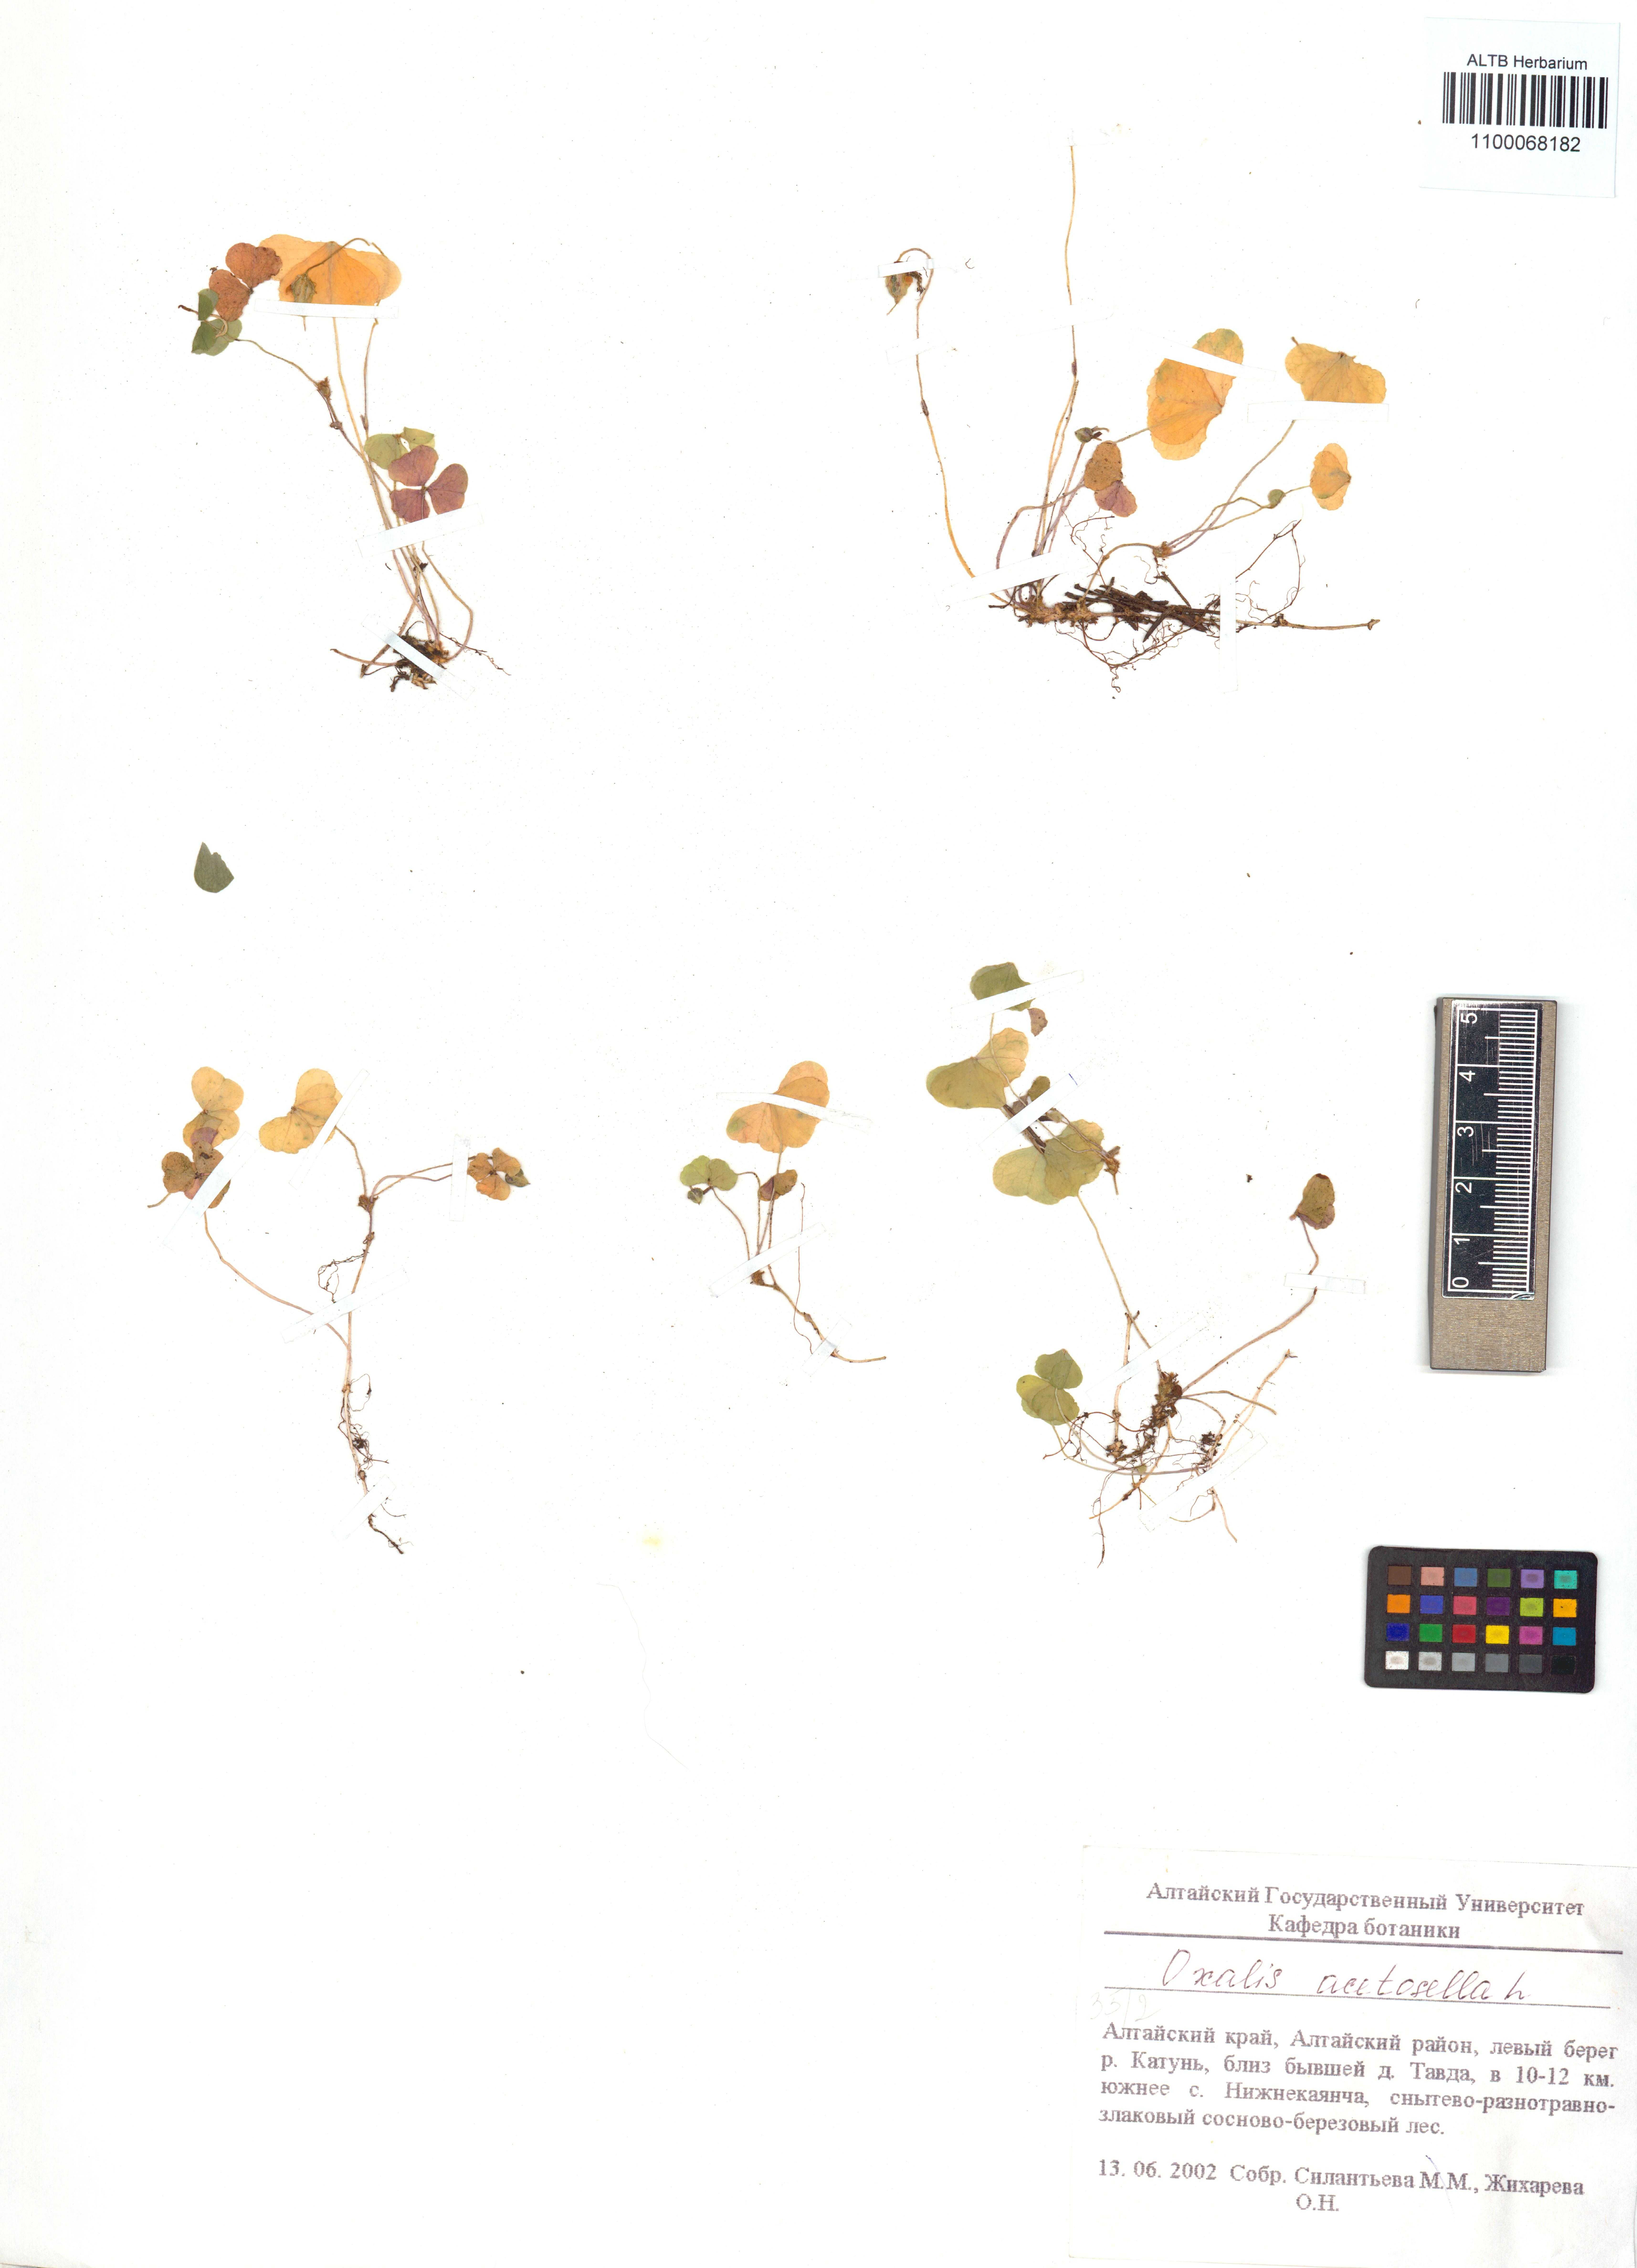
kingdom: Plantae
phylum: Tracheophyta
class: Magnoliopsida
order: Oxalidales
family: Oxalidaceae
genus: Oxalis
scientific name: Oxalis acetosella
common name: Wood-sorrel
